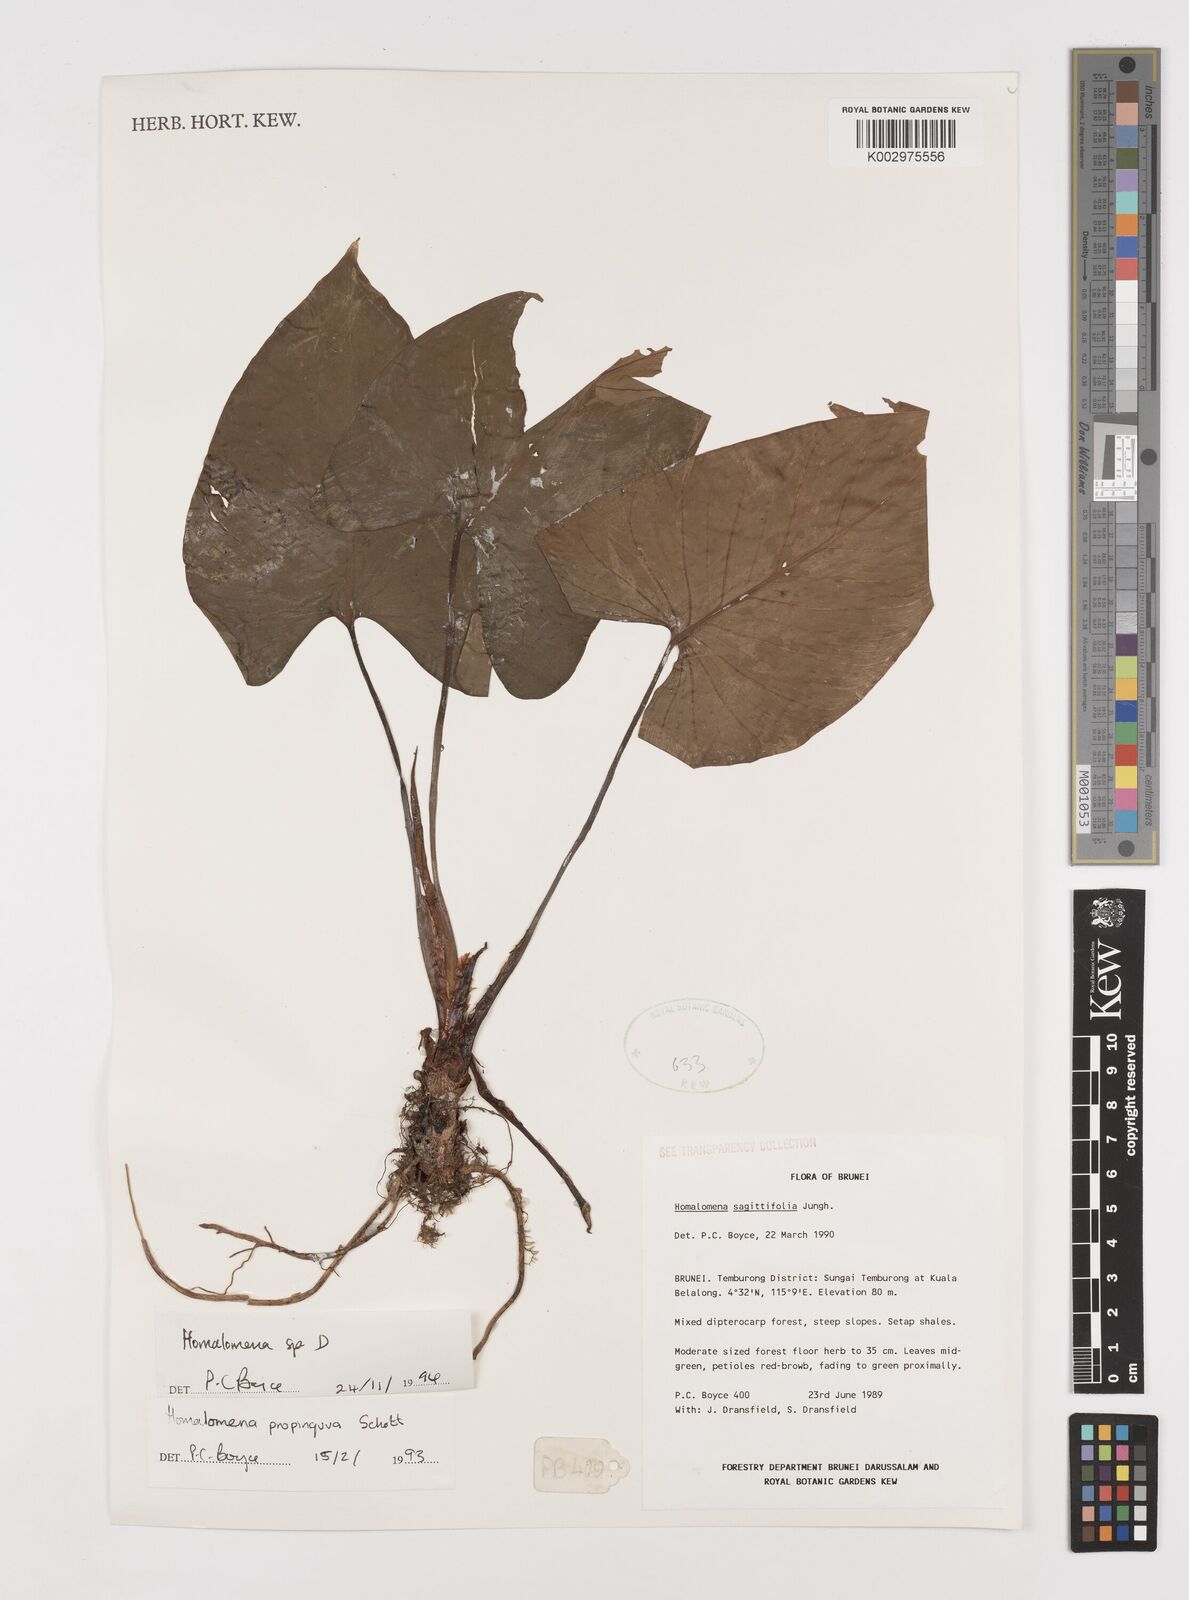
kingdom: Plantae
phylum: Tracheophyta
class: Liliopsida
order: Alismatales
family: Araceae
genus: Homalomena
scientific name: Homalomena
